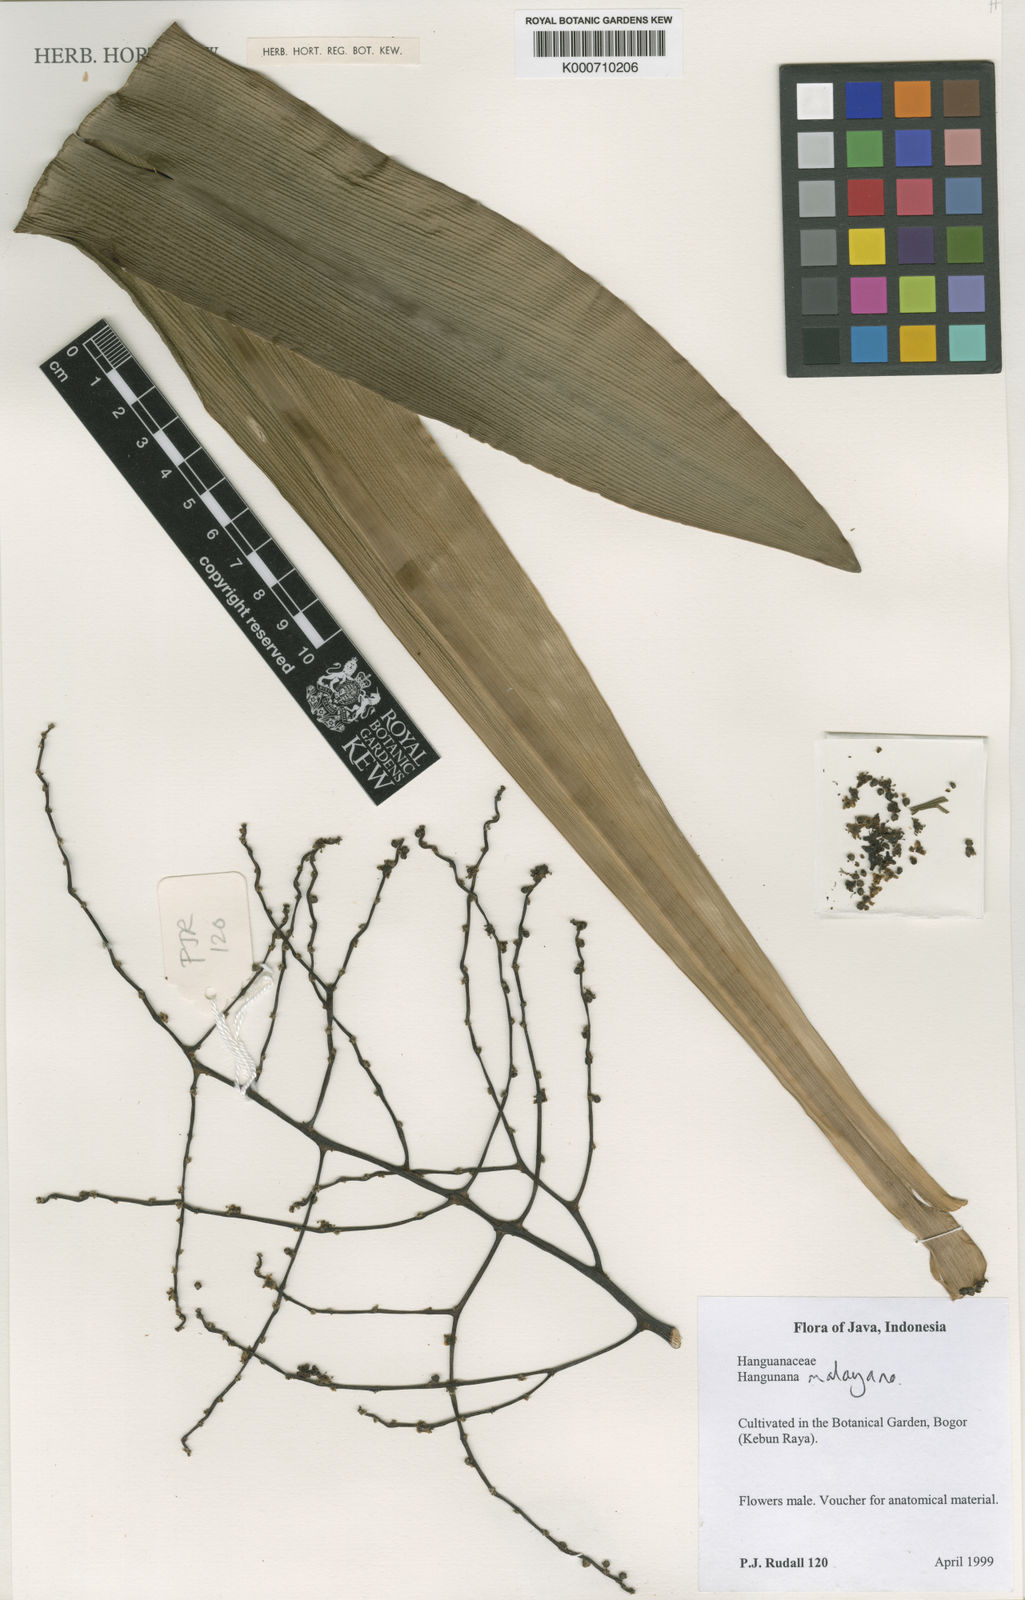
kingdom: Plantae
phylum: Tracheophyta
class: Liliopsida
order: Commelinales
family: Hanguanaceae
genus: Hanguana
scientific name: Hanguana malayana
